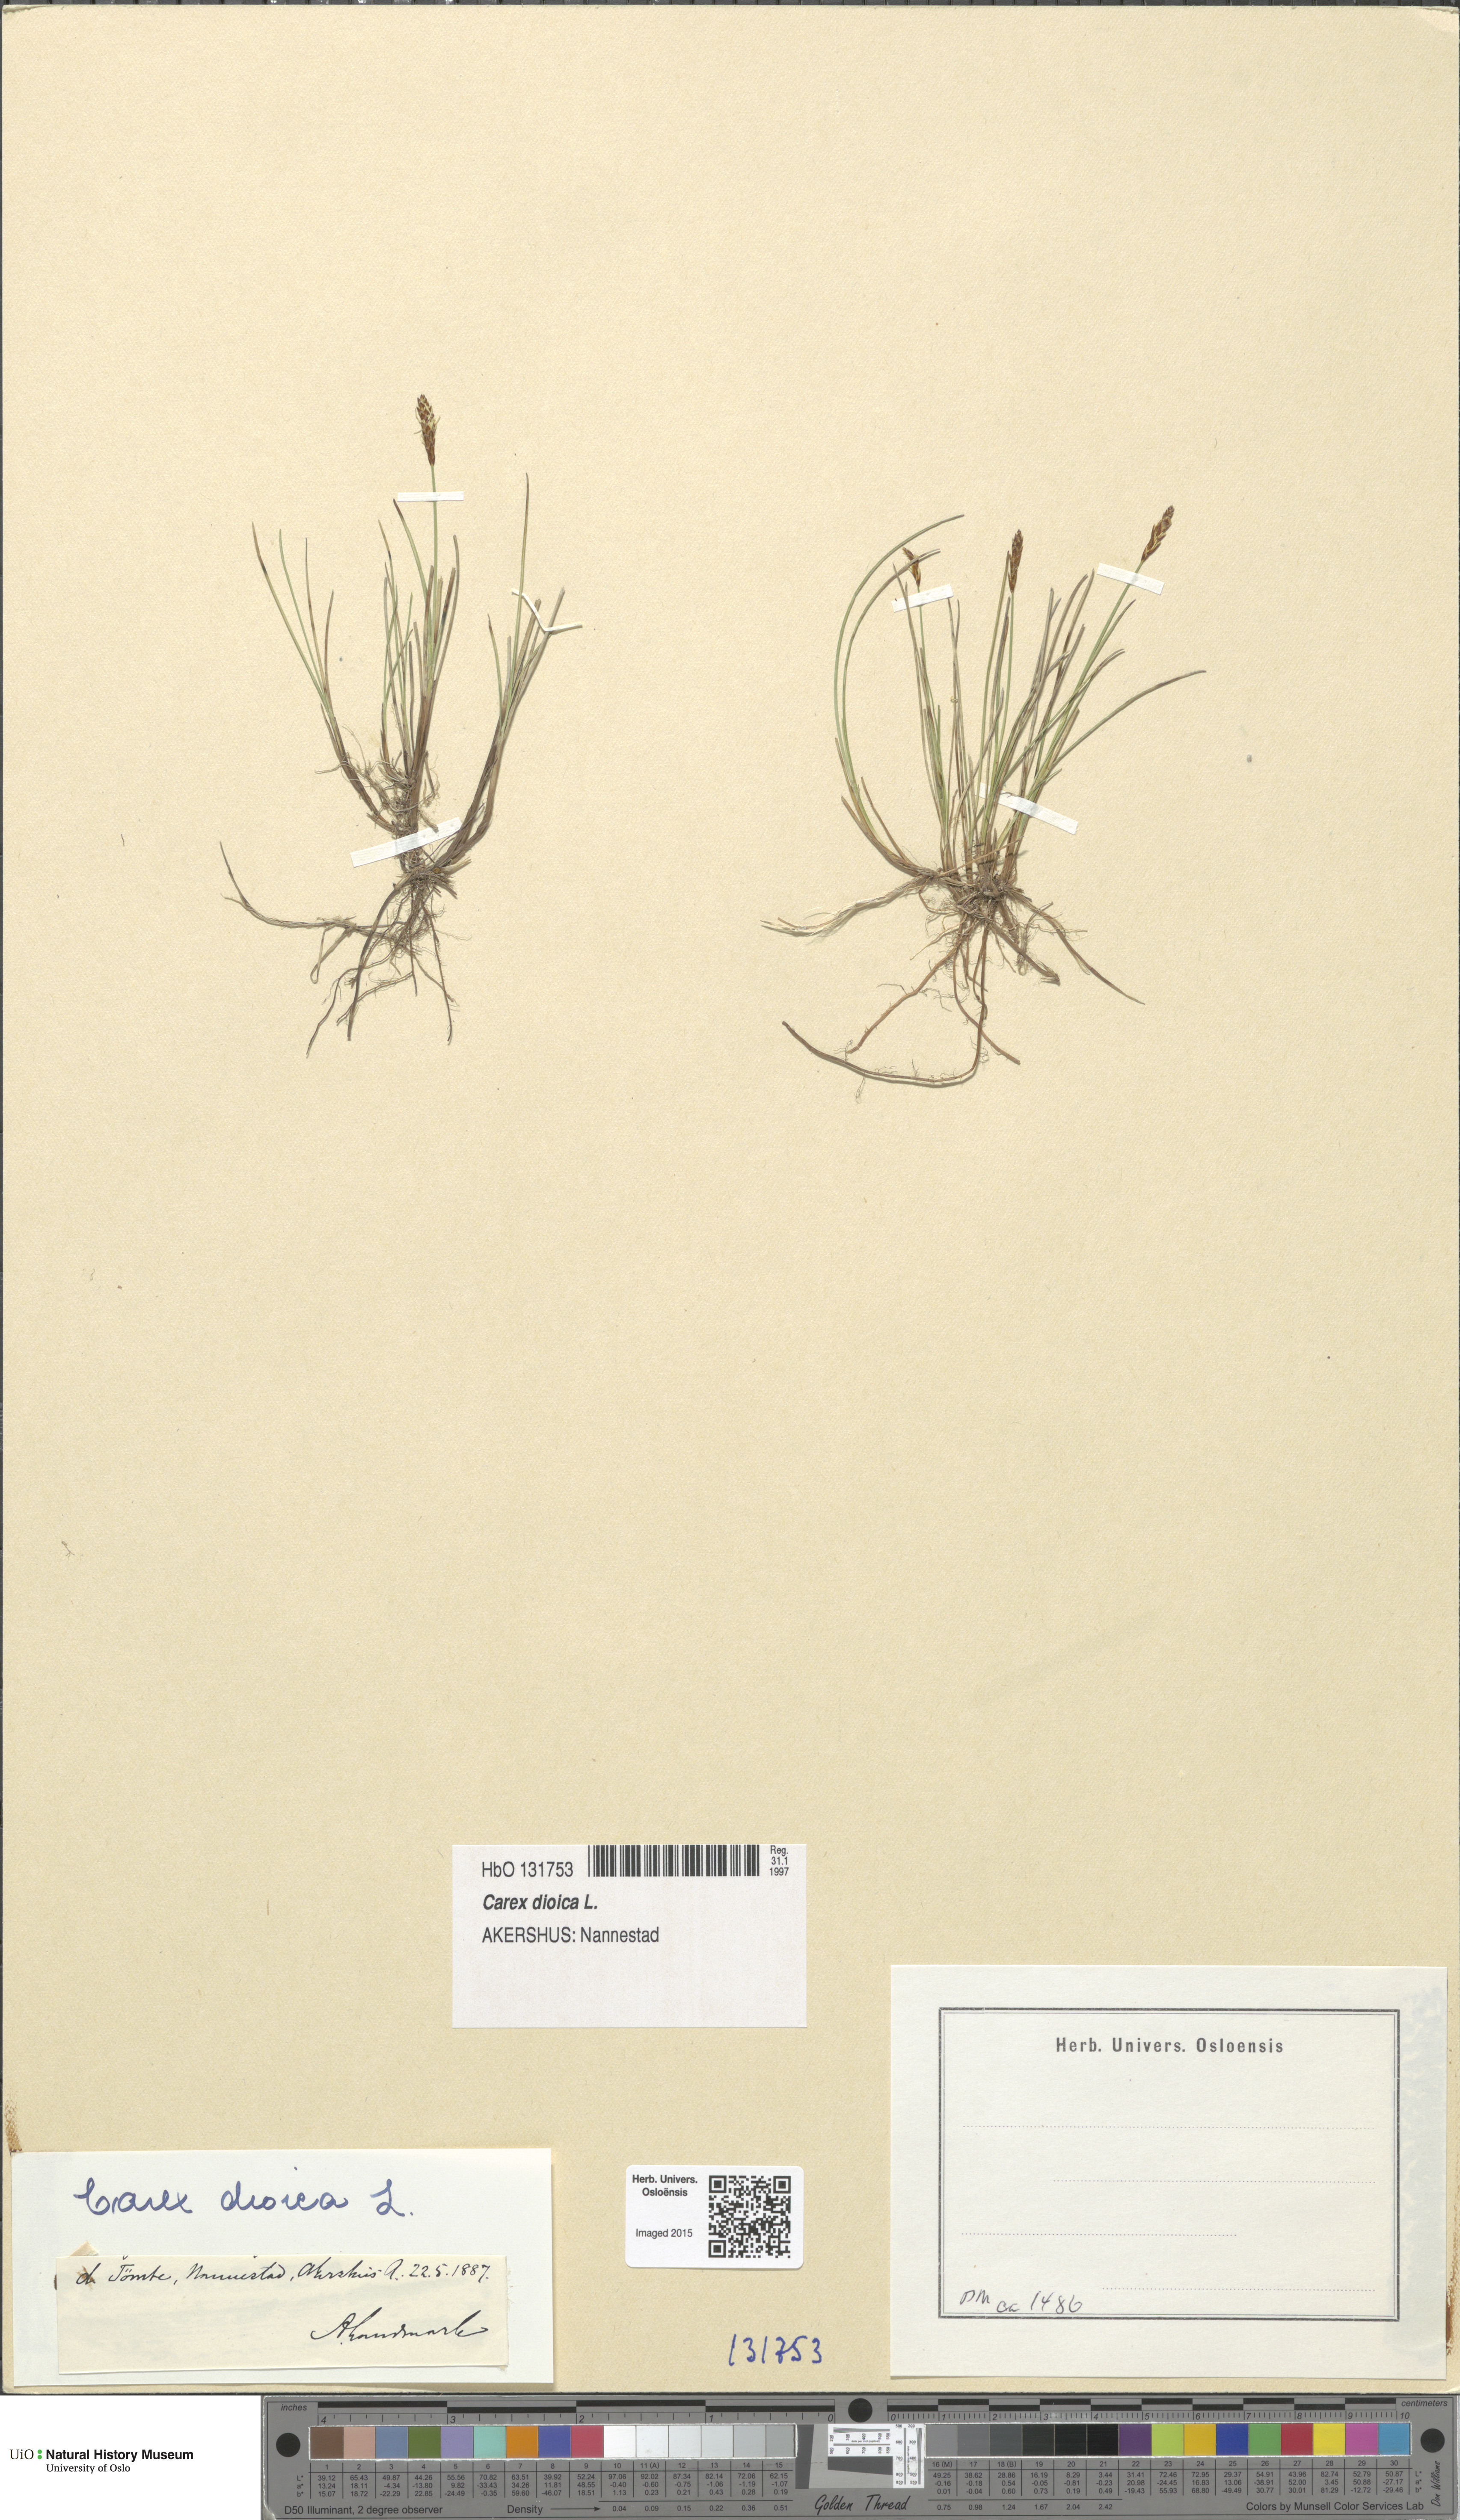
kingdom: Plantae
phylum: Tracheophyta
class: Liliopsida
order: Poales
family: Cyperaceae
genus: Carex
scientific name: Carex dioica
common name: Dioecious sedge
